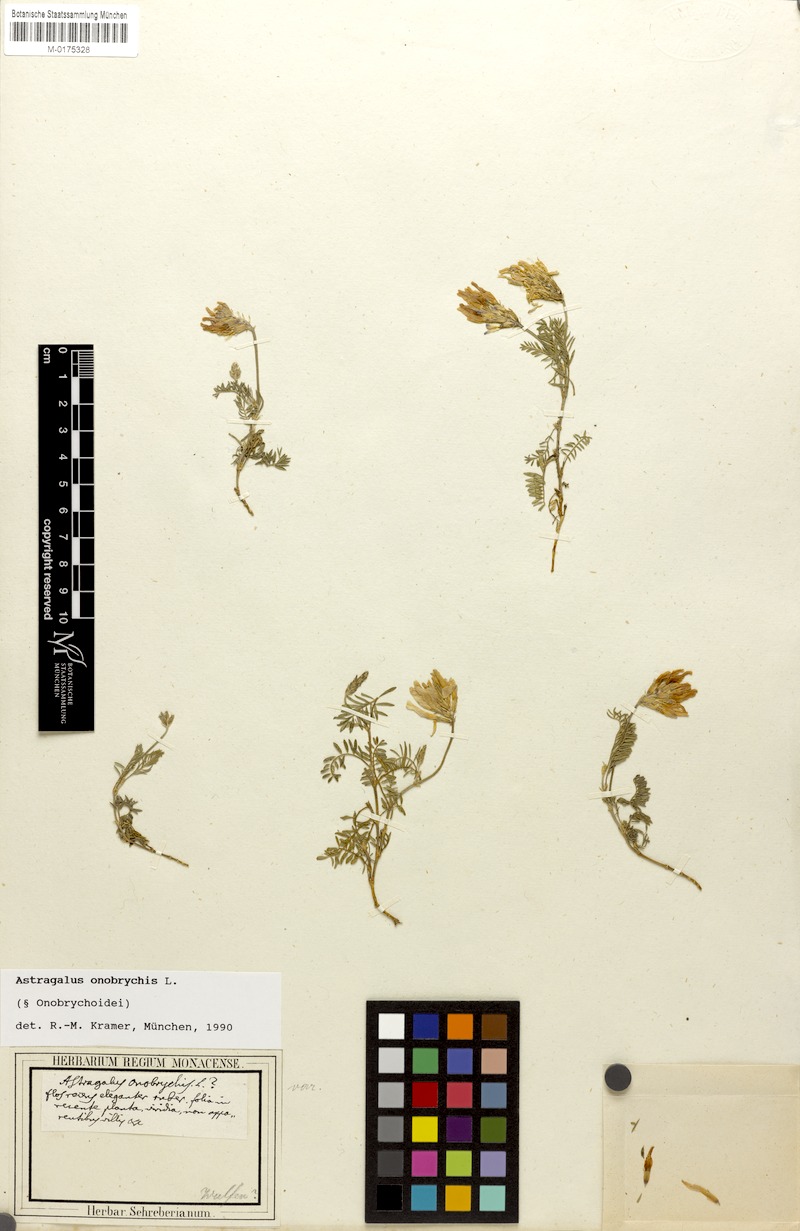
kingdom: Plantae
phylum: Tracheophyta
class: Magnoliopsida
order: Fabales
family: Fabaceae
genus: Astragalus
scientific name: Astragalus onobrychis
